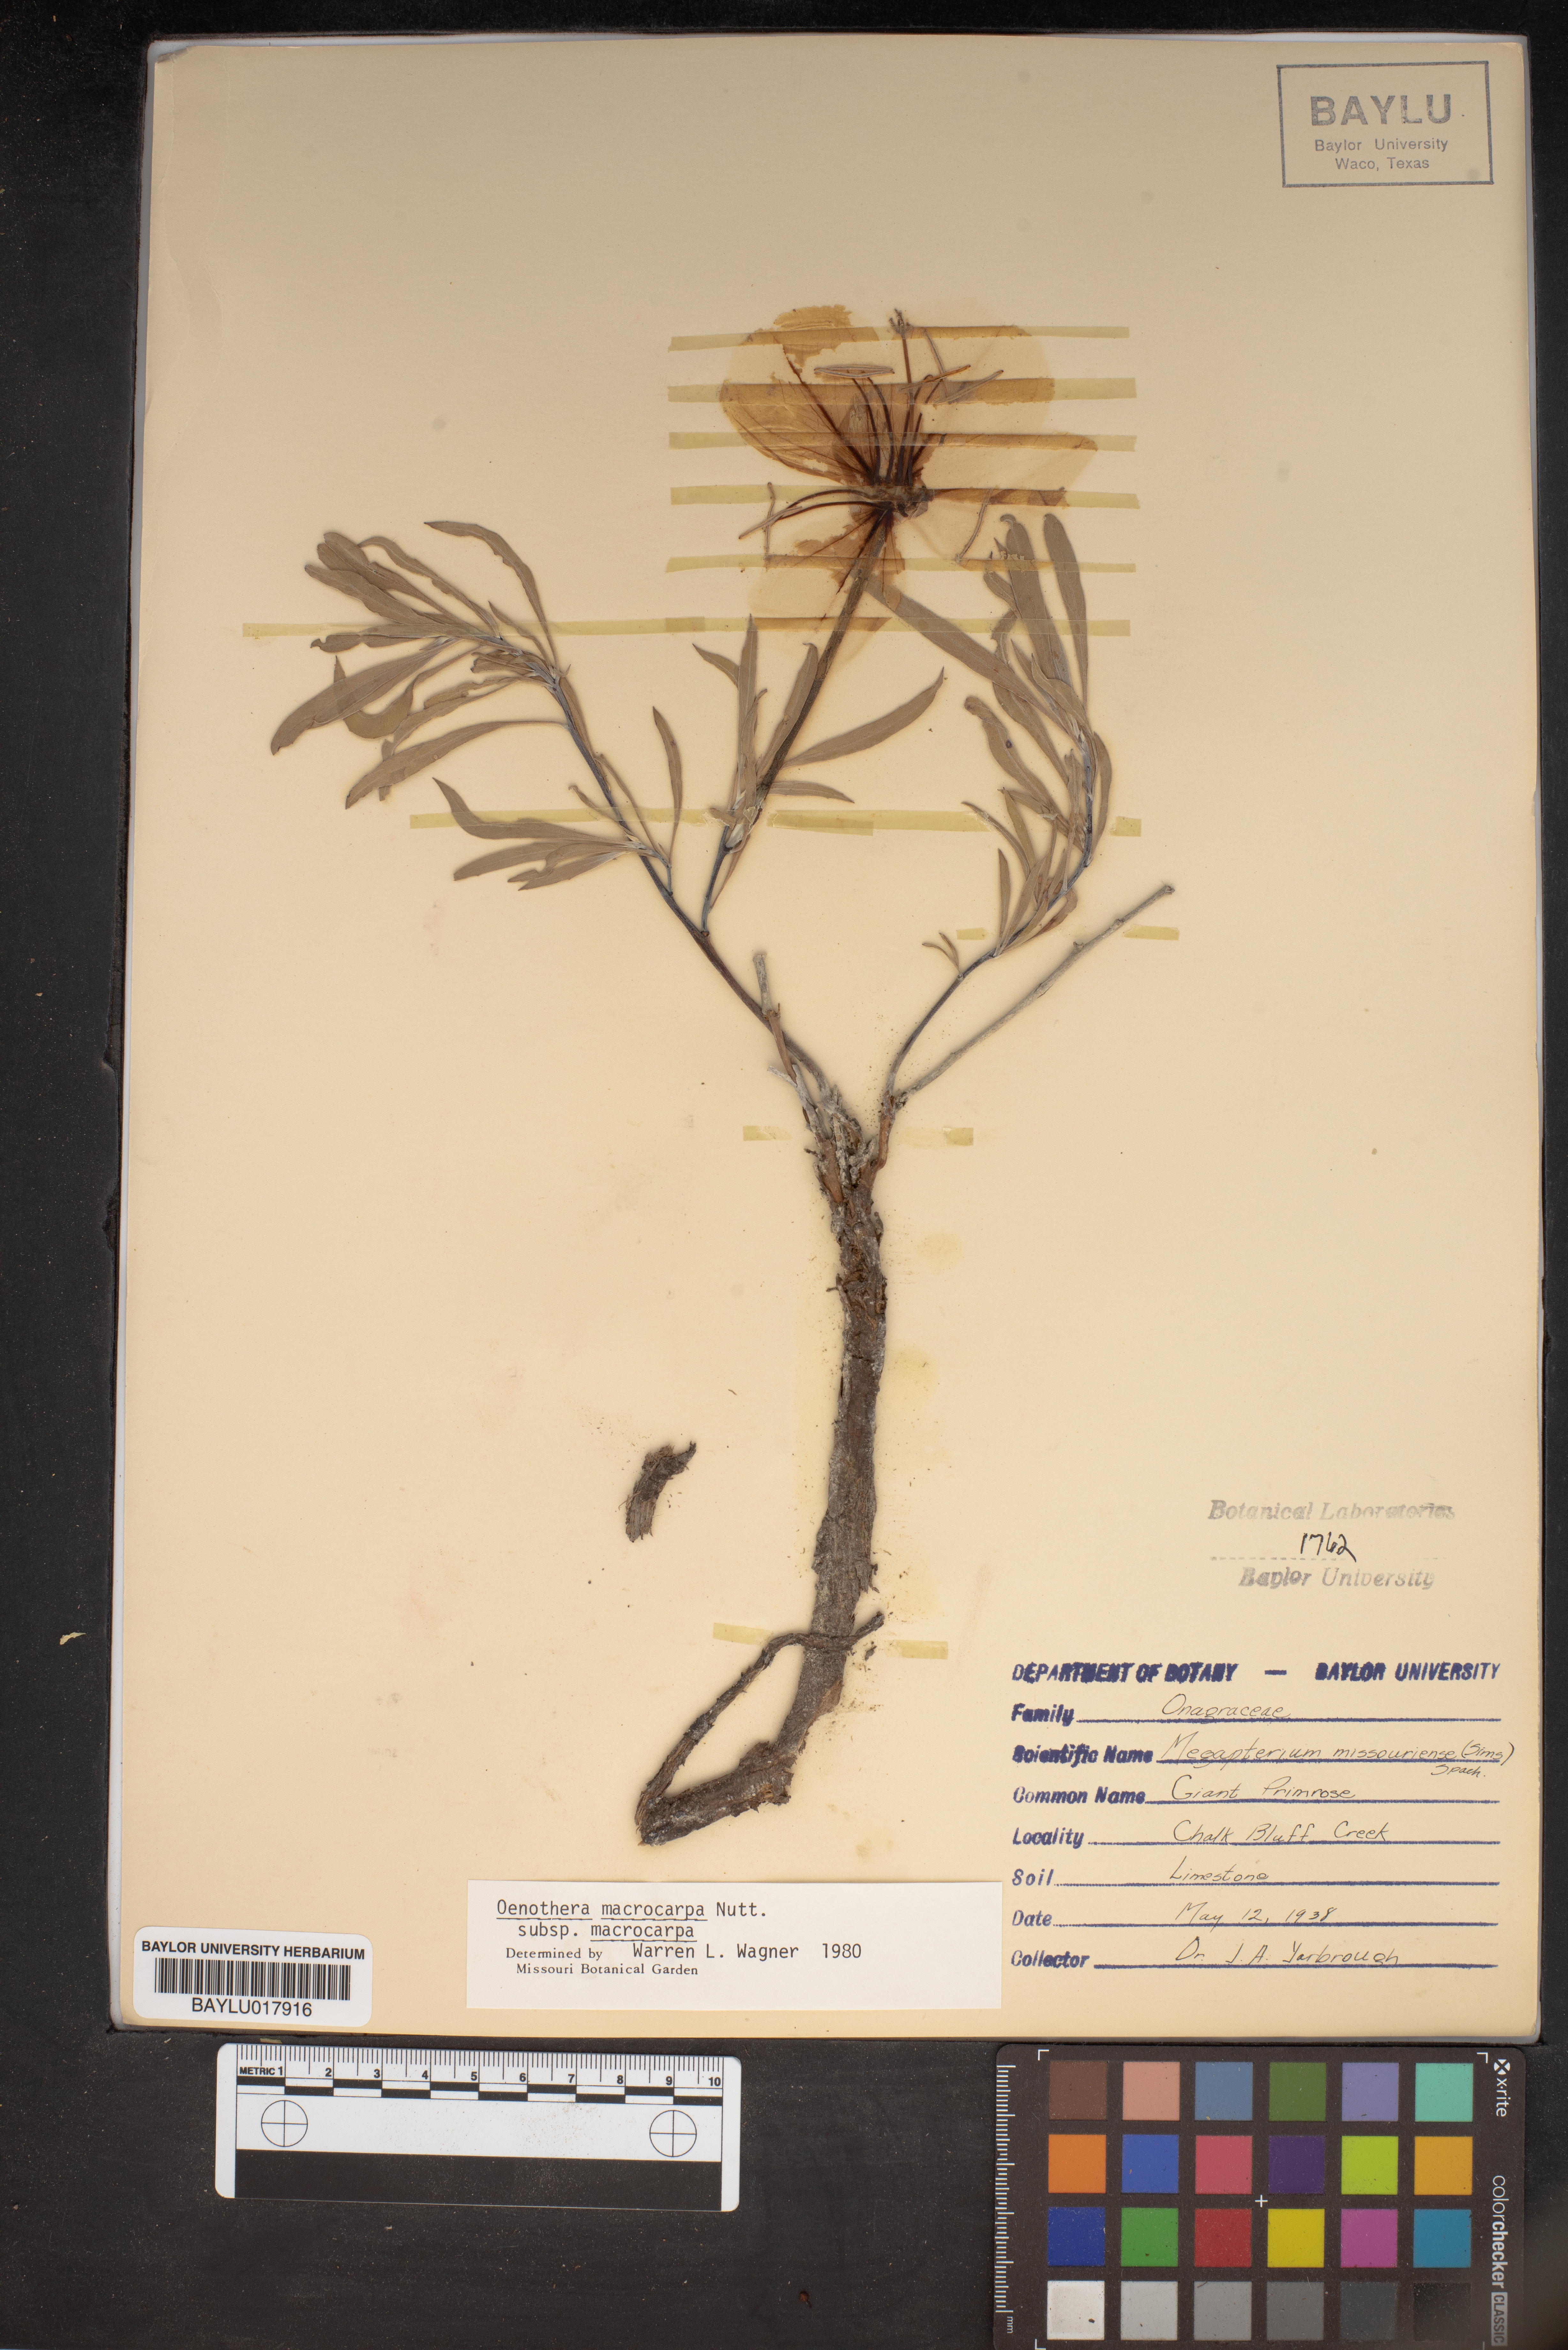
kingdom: Plantae
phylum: Tracheophyta
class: Magnoliopsida
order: Myrtales
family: Onagraceae
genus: Oenothera
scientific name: Oenothera macrocarpa
